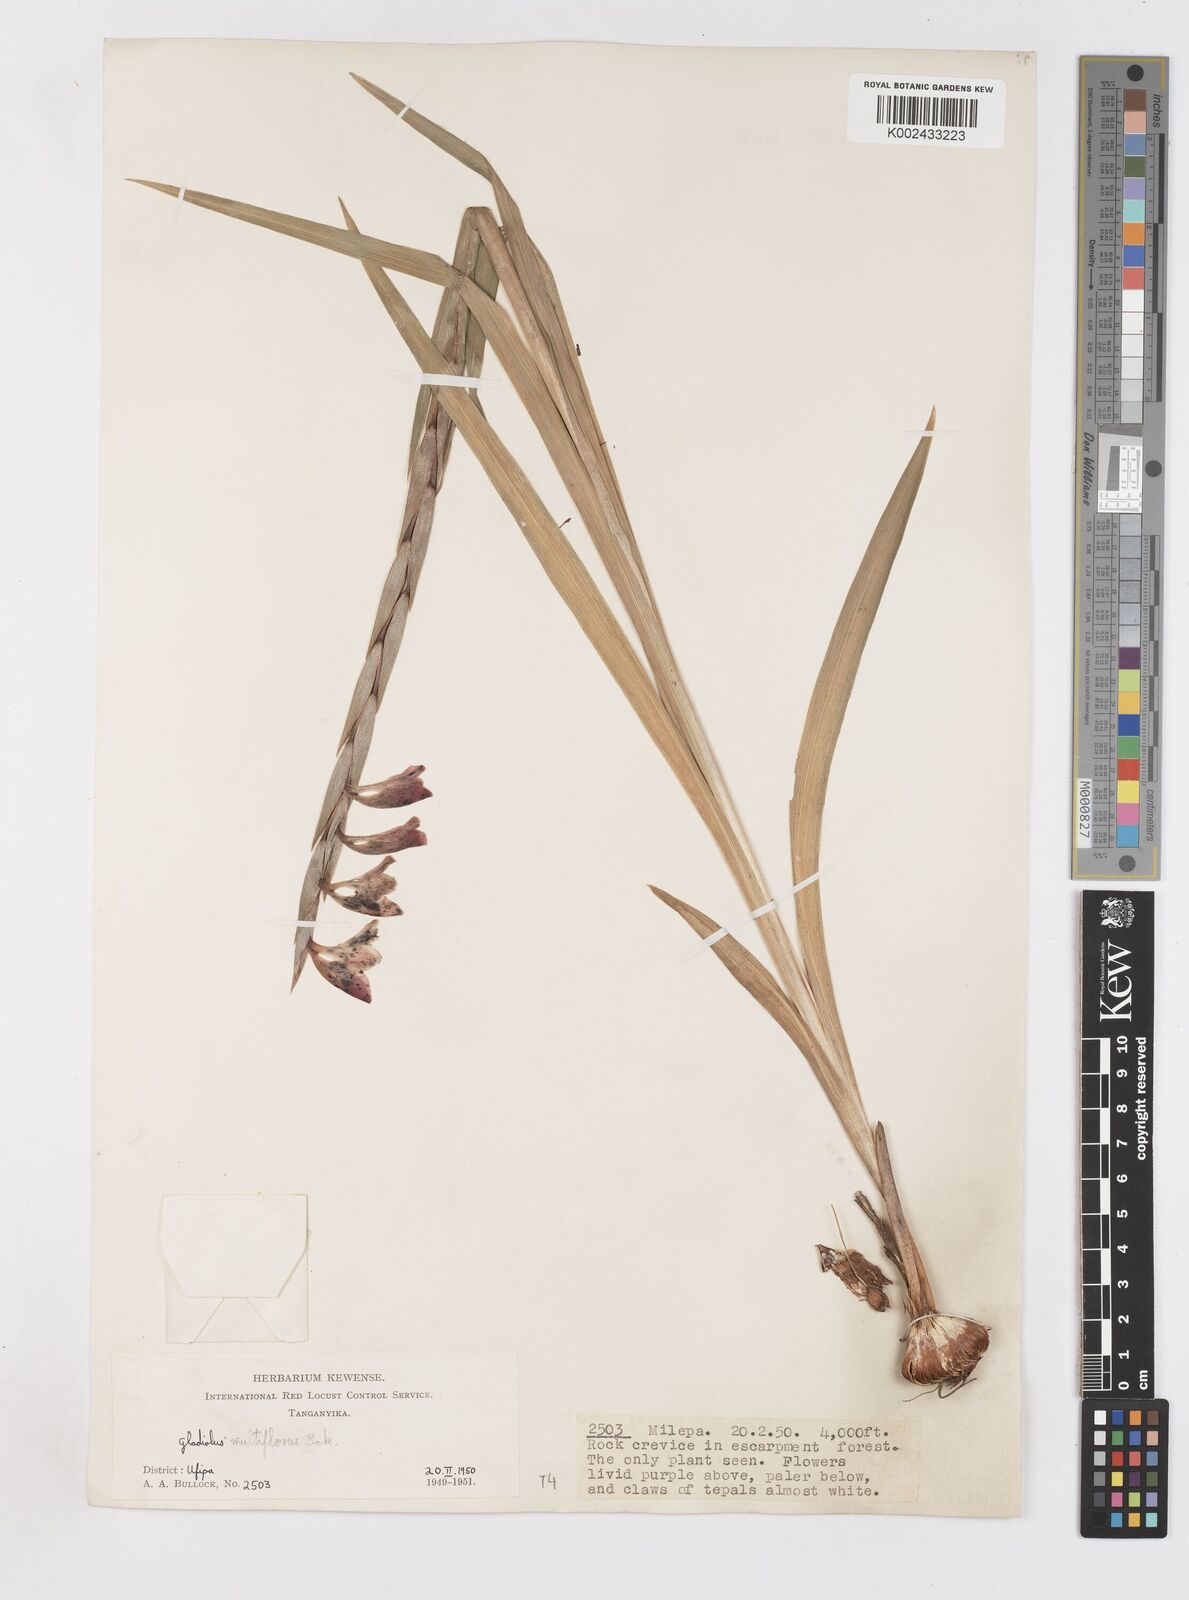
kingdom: Plantae
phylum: Tracheophyta
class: Liliopsida
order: Asparagales
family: Iridaceae
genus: Gladiolus
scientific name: Gladiolus gregarius
